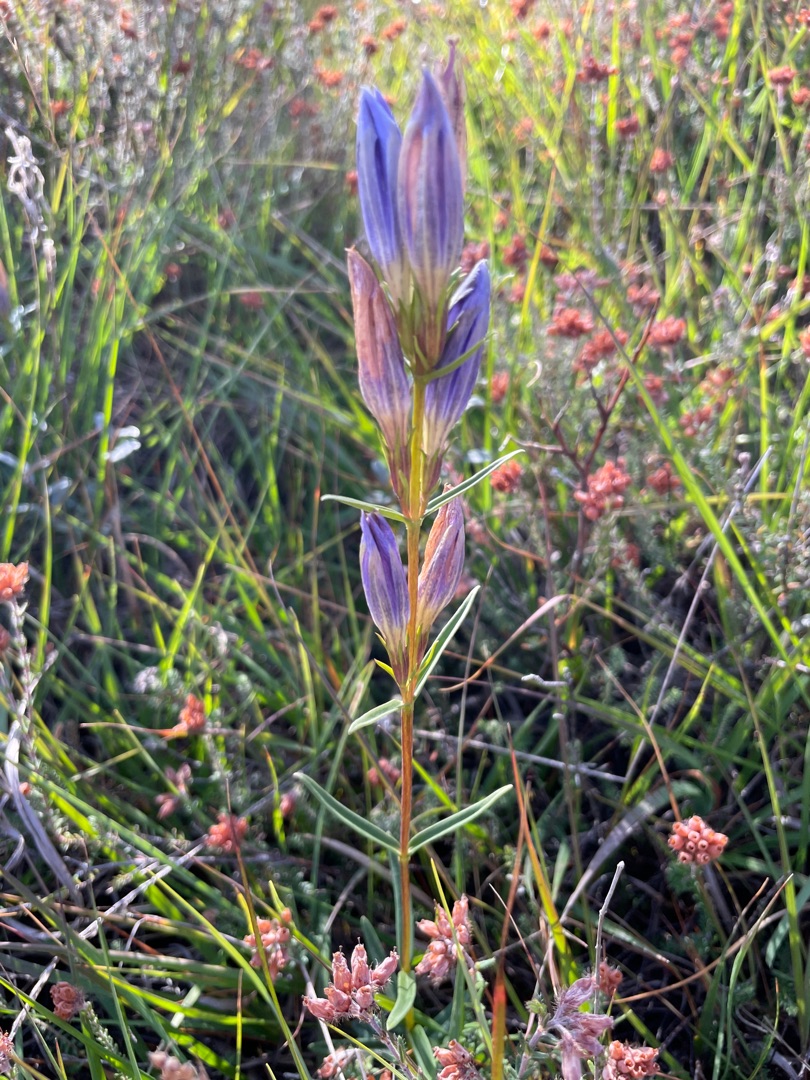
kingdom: Plantae
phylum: Tracheophyta
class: Magnoliopsida
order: Gentianales
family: Gentianaceae
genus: Gentiana
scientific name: Gentiana pneumonanthe
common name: Klokke-ensian
